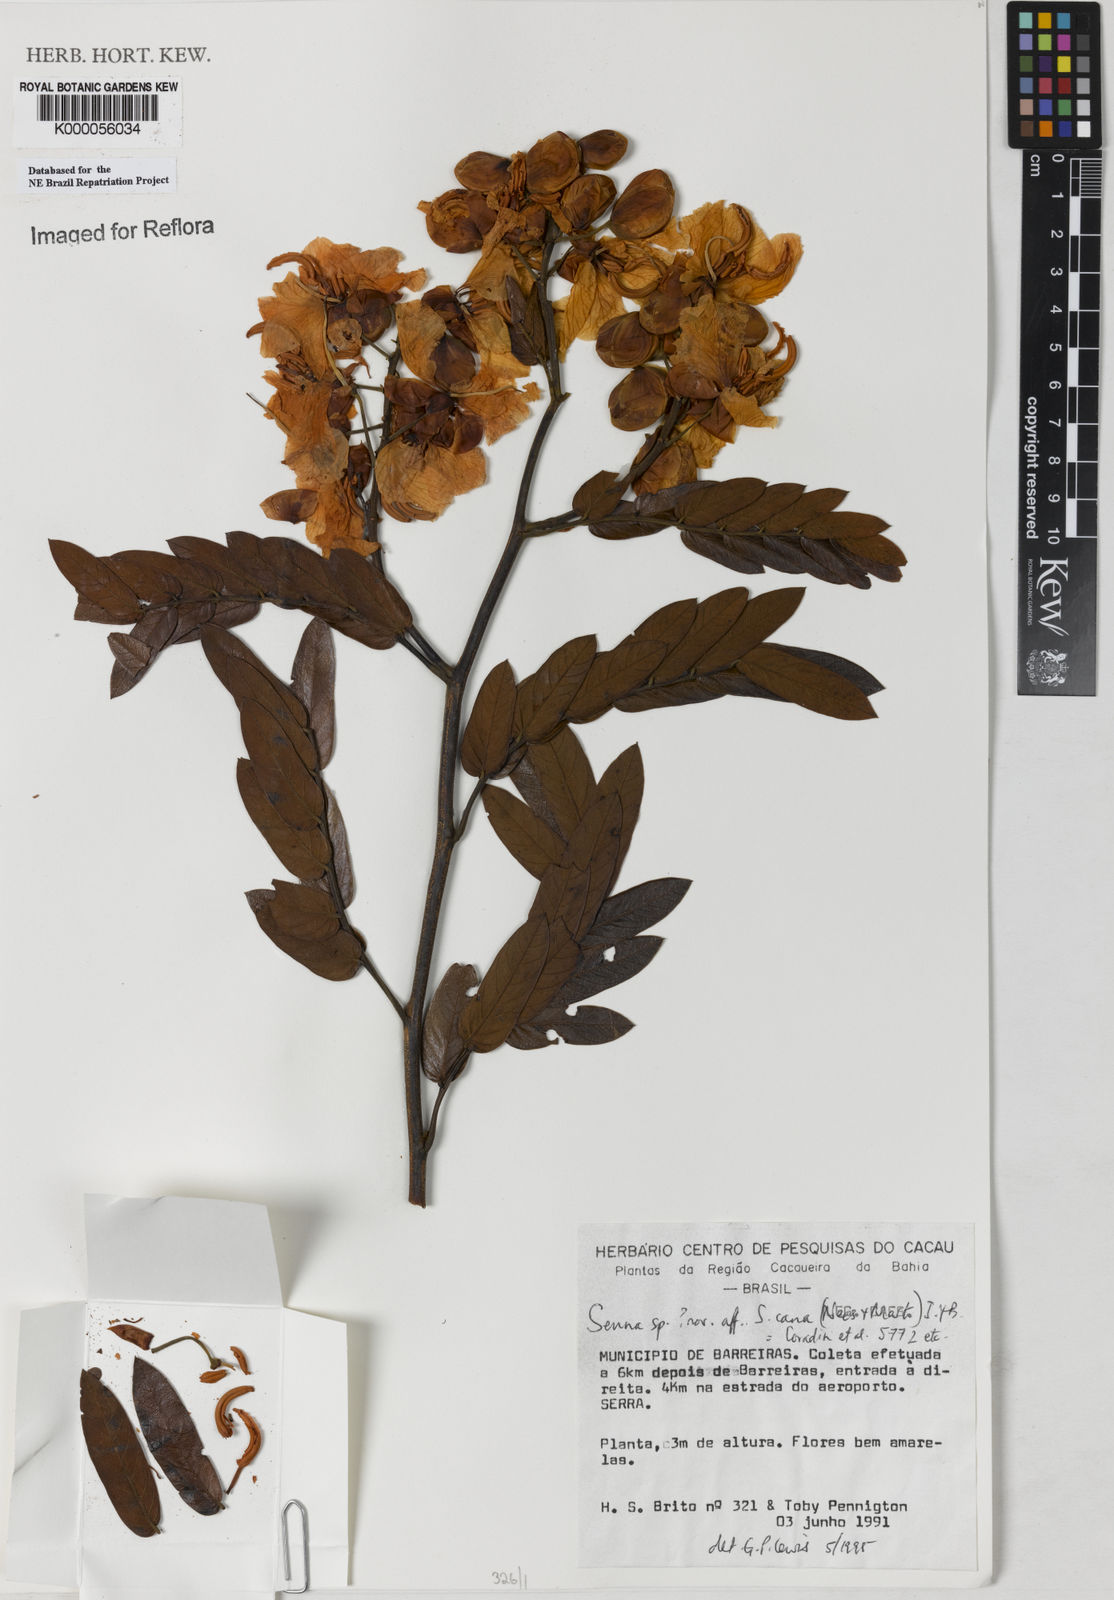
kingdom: Plantae
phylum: Tracheophyta
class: Magnoliopsida
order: Fabales
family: Fabaceae
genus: Senna
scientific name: Senna biglandularis
